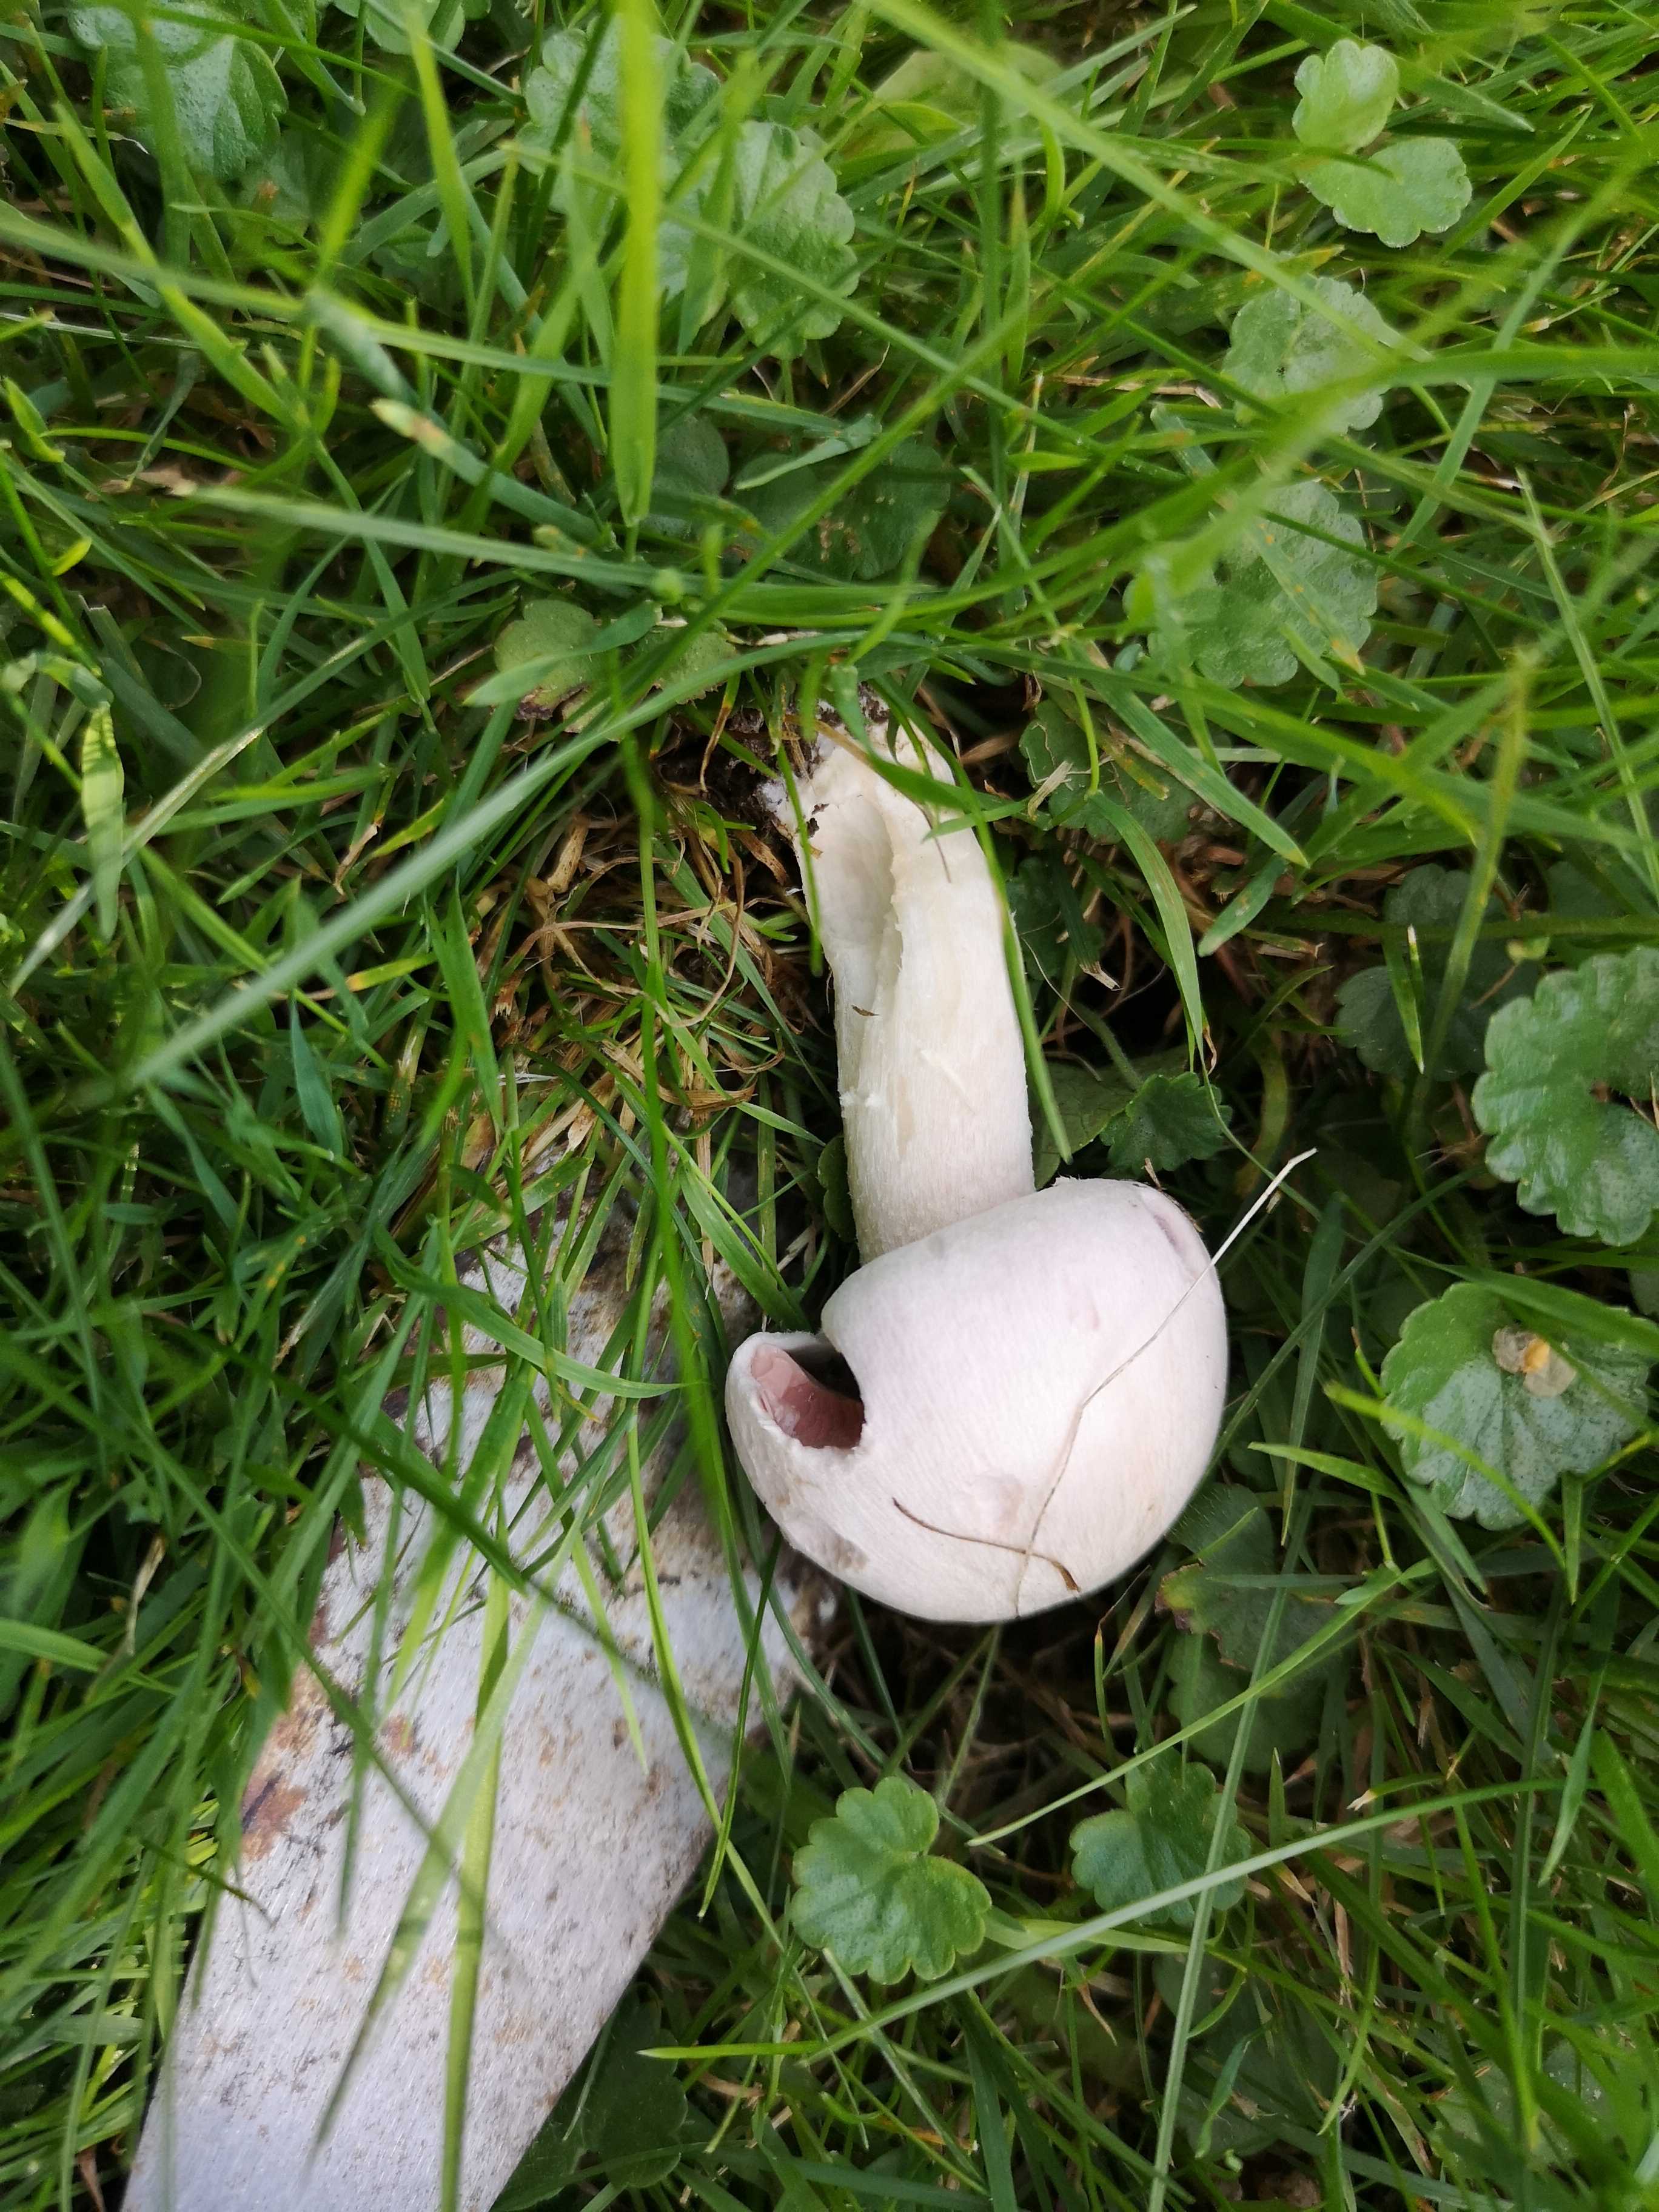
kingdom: Fungi
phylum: Basidiomycota
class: Agaricomycetes
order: Agaricales
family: Agaricaceae
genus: Agaricus
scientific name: Agaricus campestris
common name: mark-champignon
